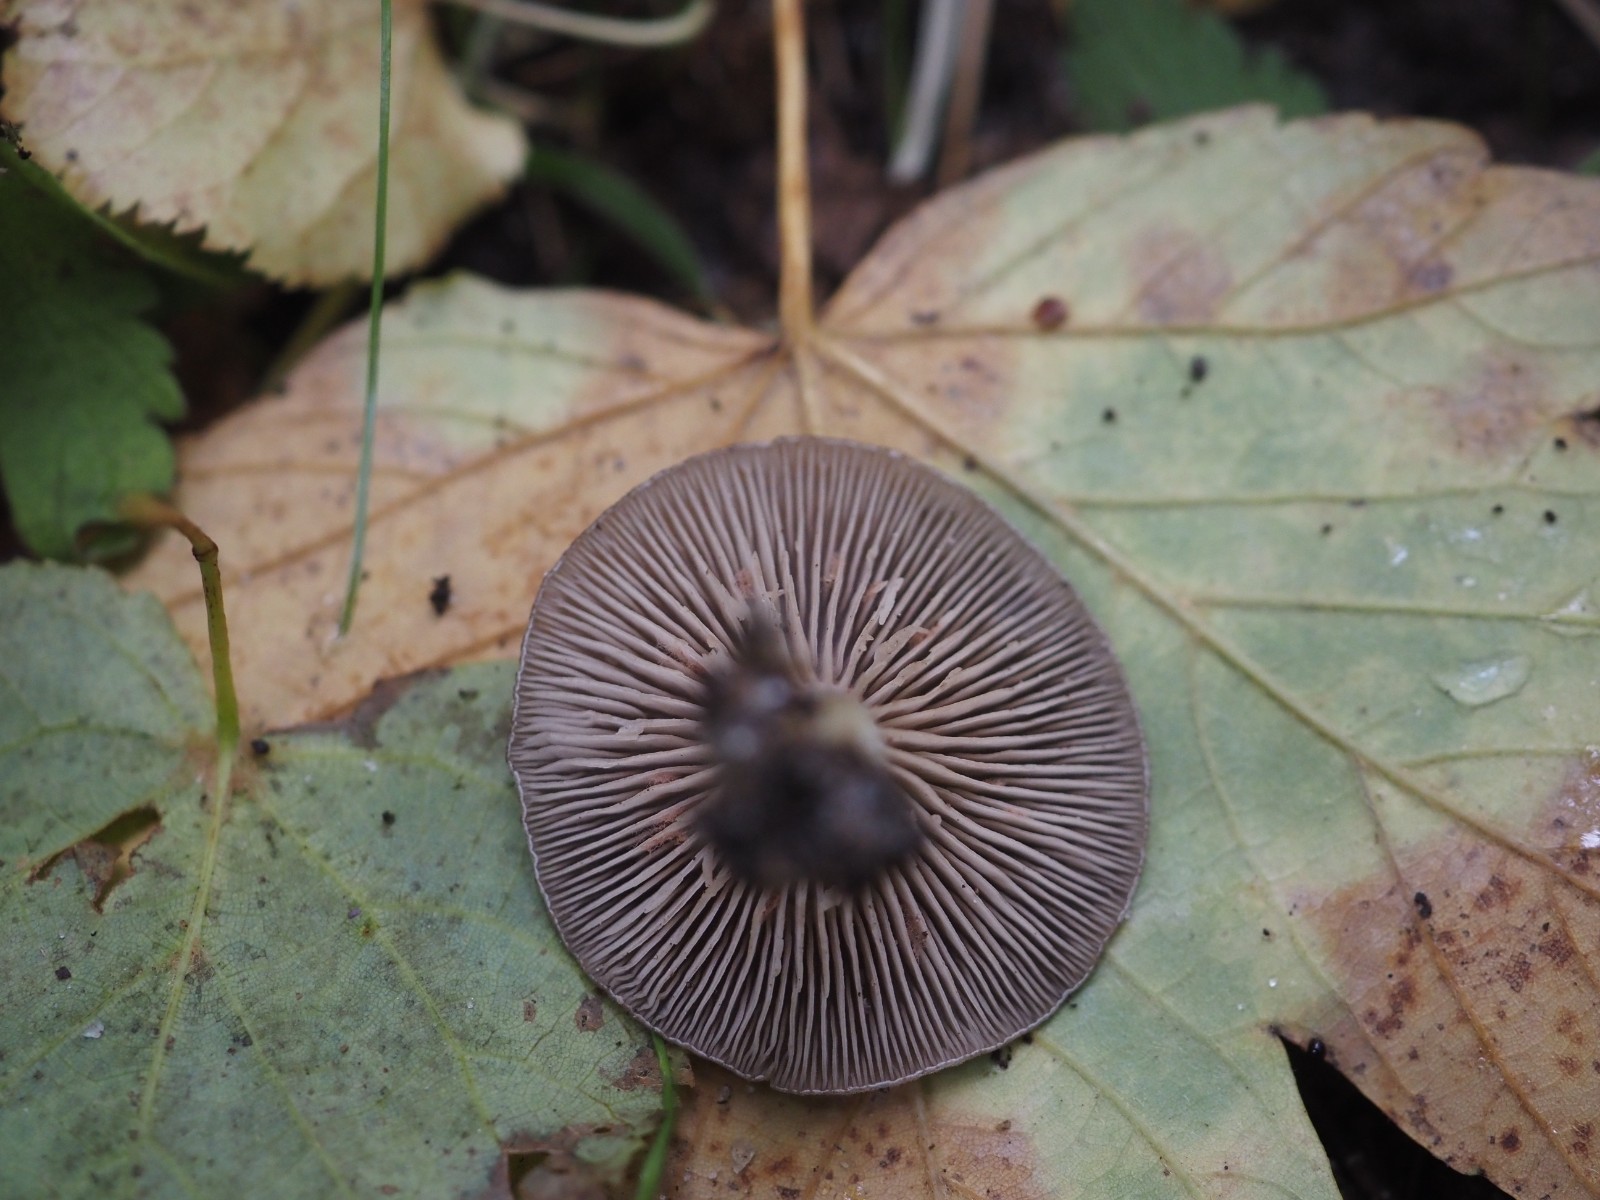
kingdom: Fungi
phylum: Basidiomycota
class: Agaricomycetes
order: Agaricales
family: Entolomataceae
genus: Entoloma
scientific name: Entoloma undatum
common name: bæltet rødblad
